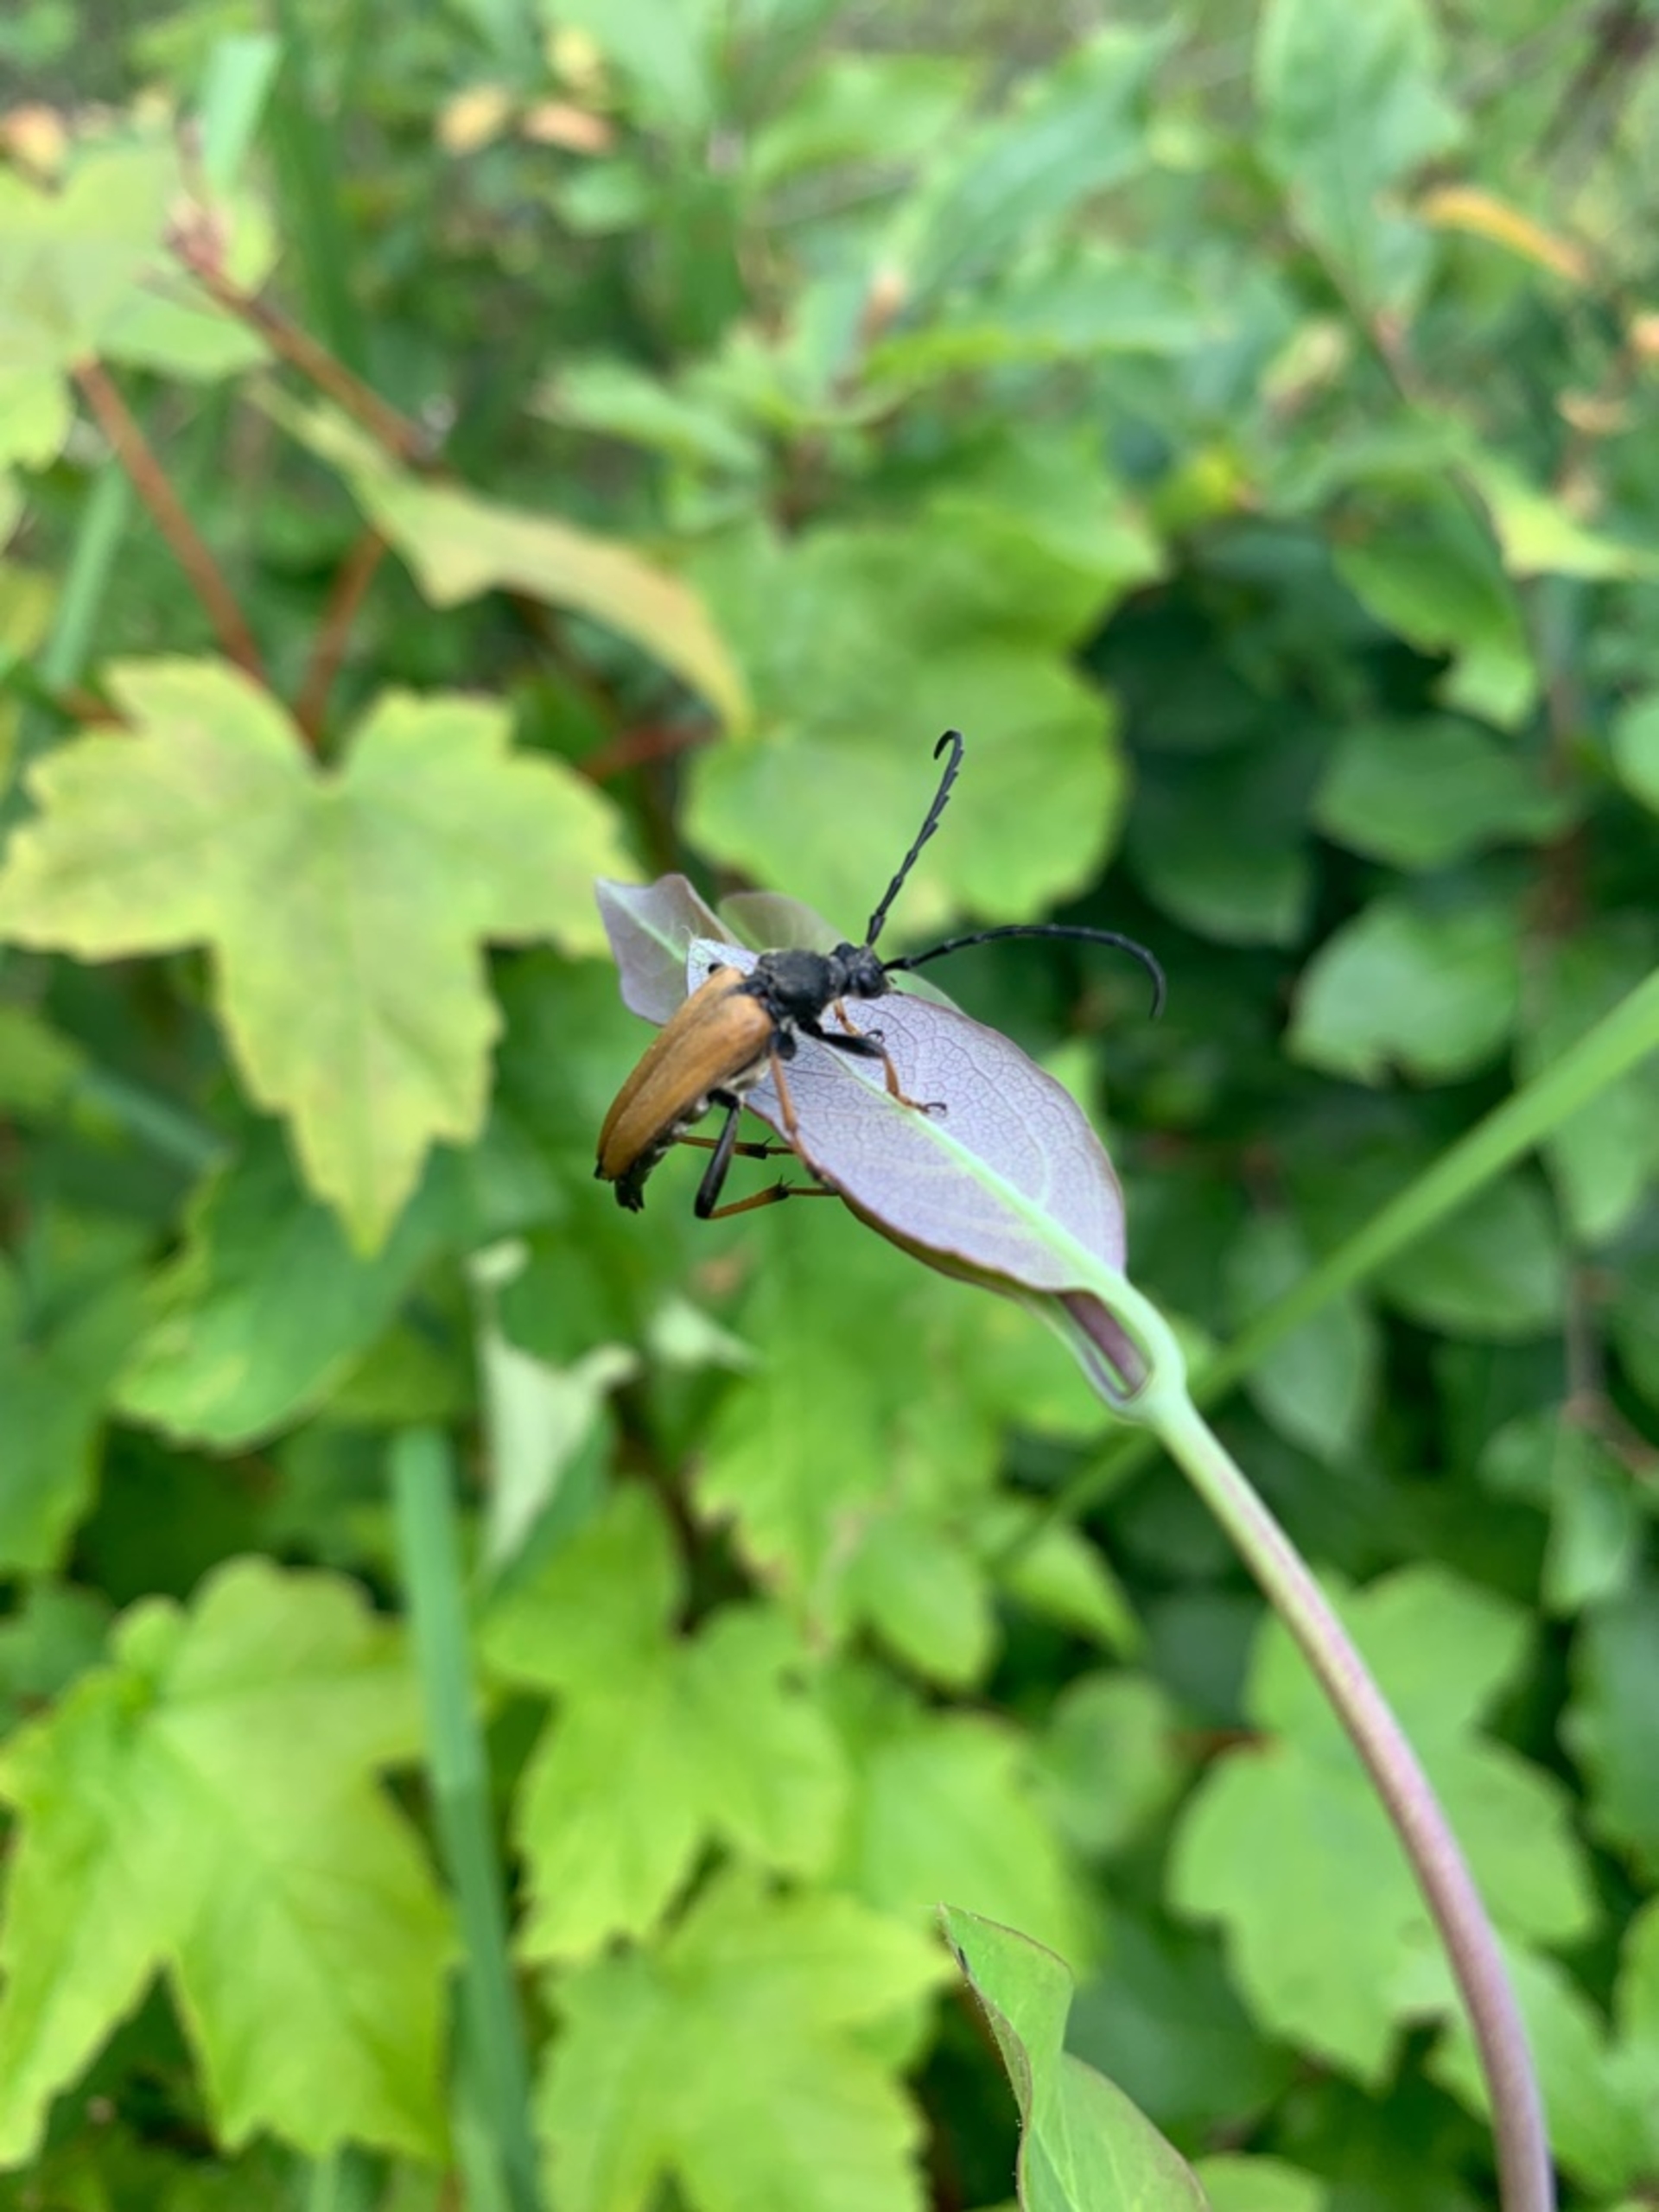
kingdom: Animalia
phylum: Arthropoda
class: Insecta
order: Coleoptera
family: Cerambycidae
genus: Stictoleptura
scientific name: Stictoleptura rubra
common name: Rød blomsterbuk
